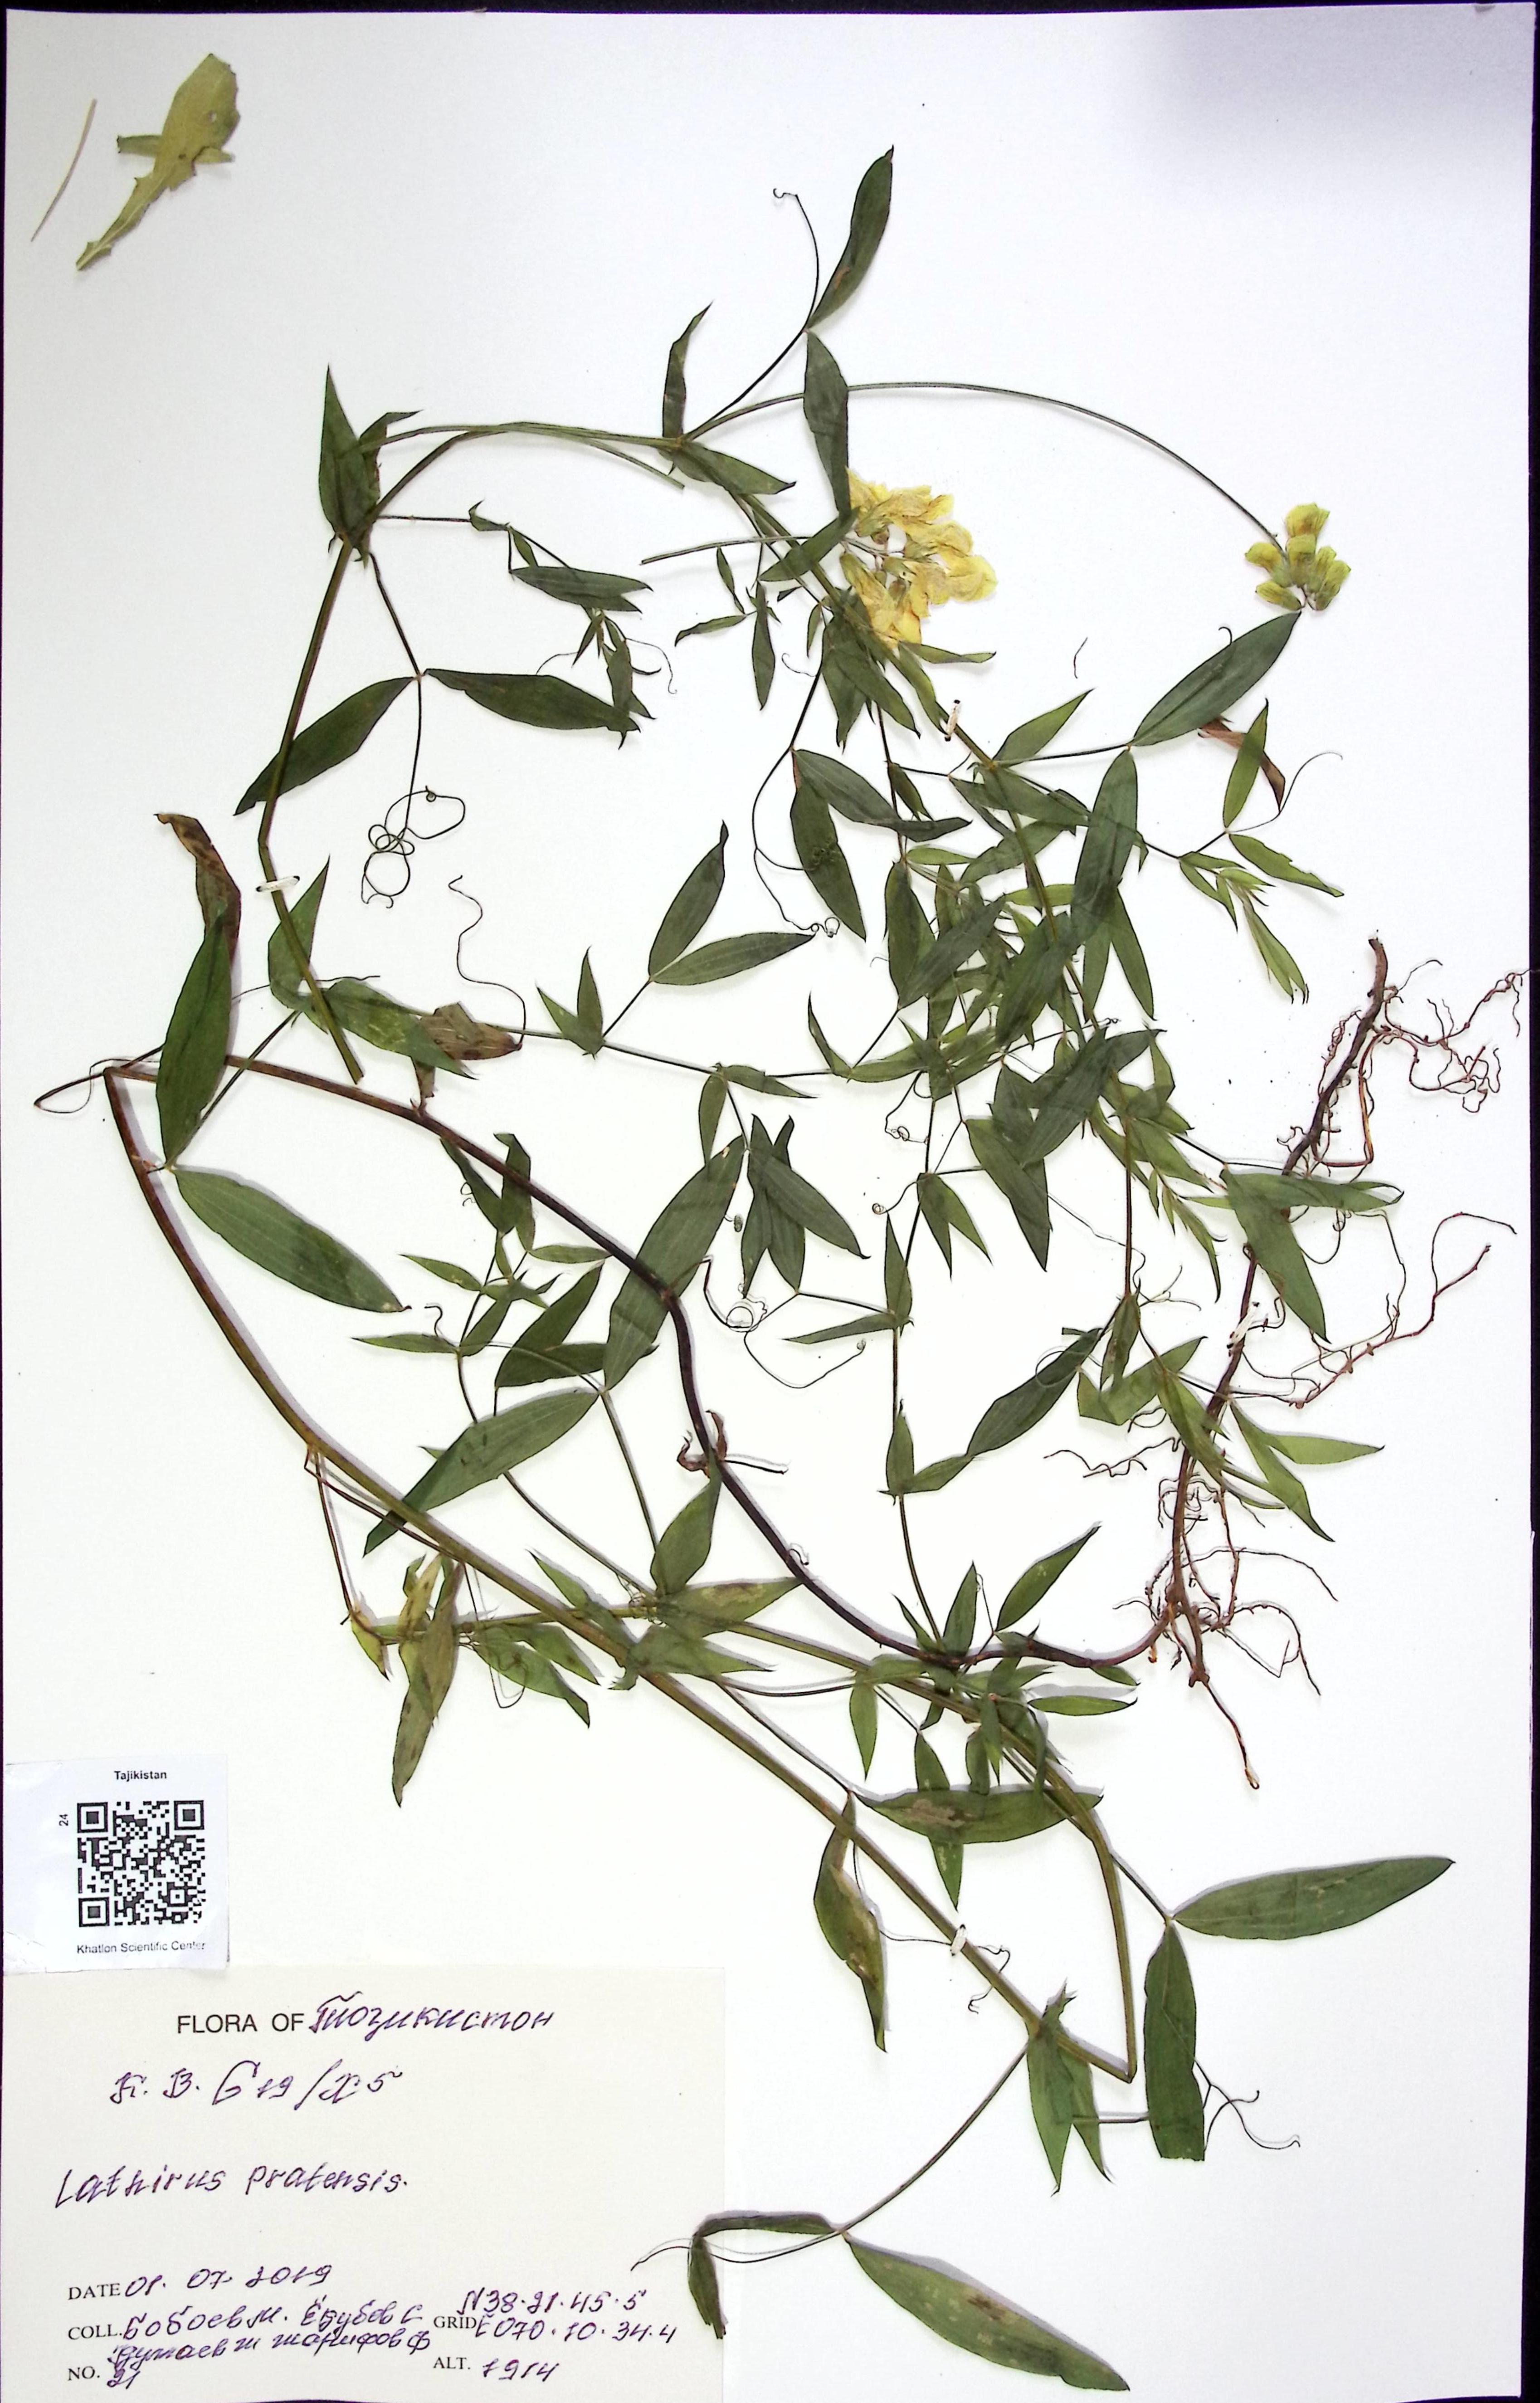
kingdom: Plantae
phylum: Tracheophyta
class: Magnoliopsida
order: Fabales
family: Fabaceae
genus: Lathyrus
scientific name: Lathyrus pratensis
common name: Meadow vetchling
